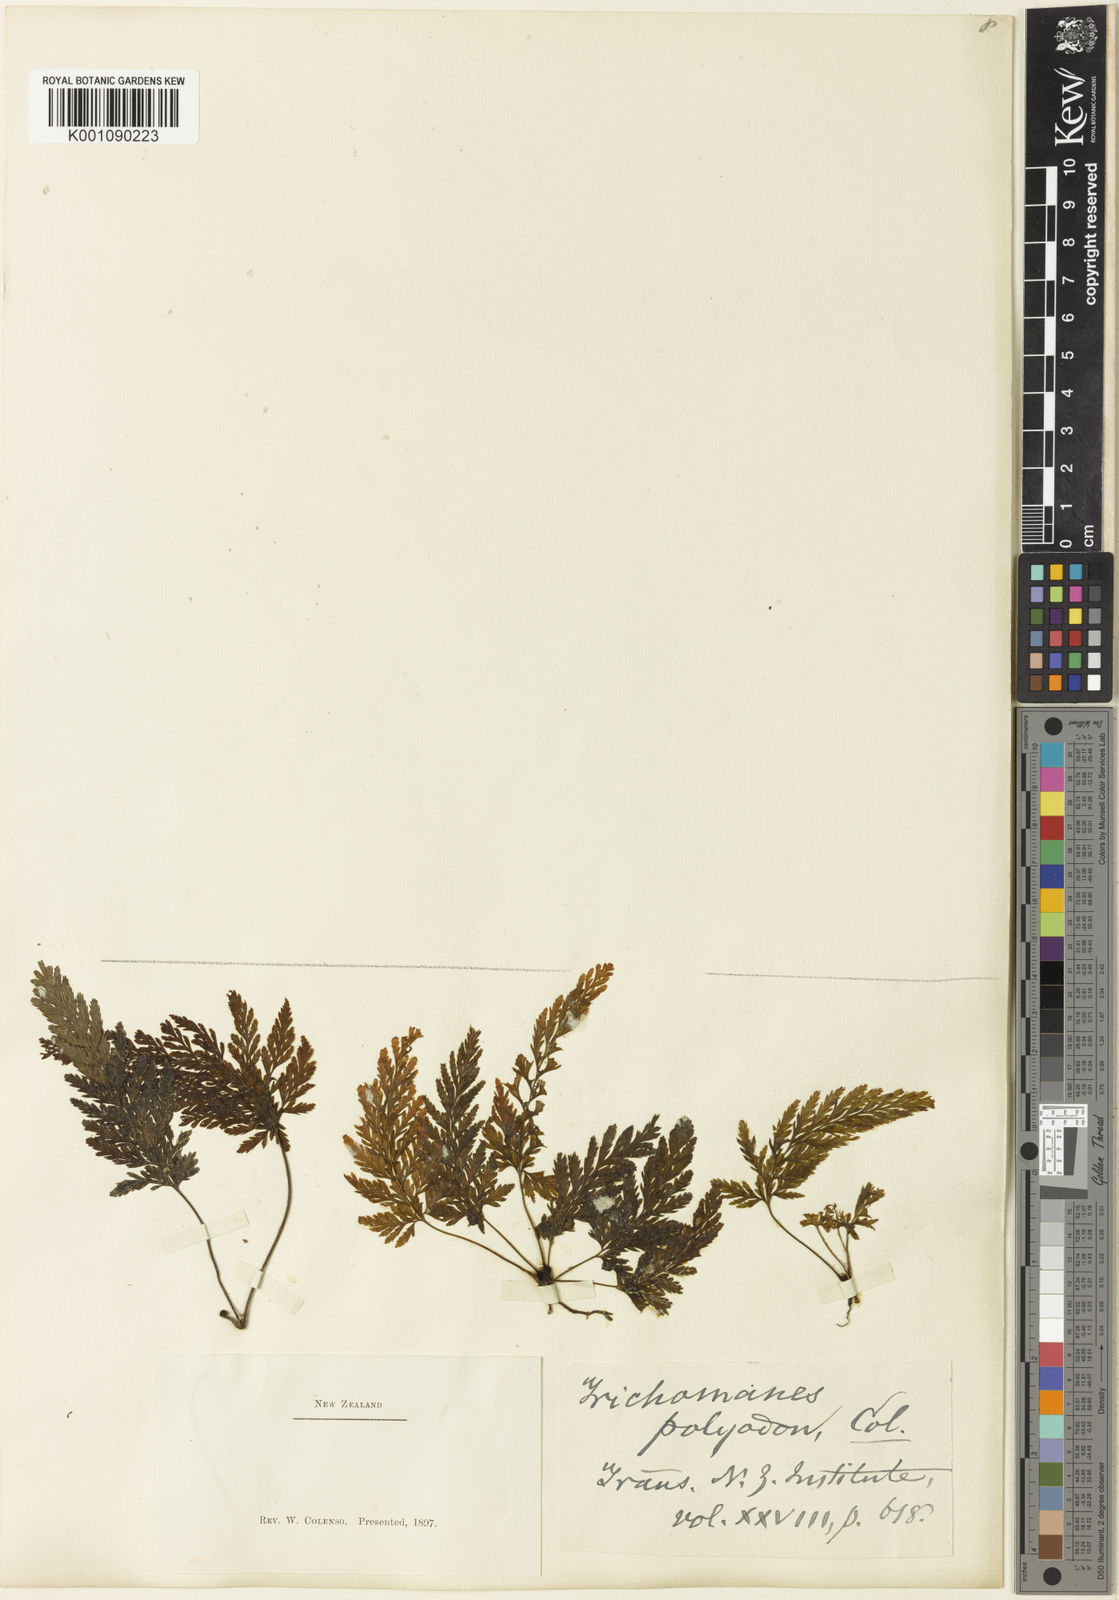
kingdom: Plantae
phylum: Tracheophyta
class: Polypodiopsida
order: Hymenophyllales
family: Hymenophyllaceae
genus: Abrodictyum
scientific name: Abrodictyum elongatum
